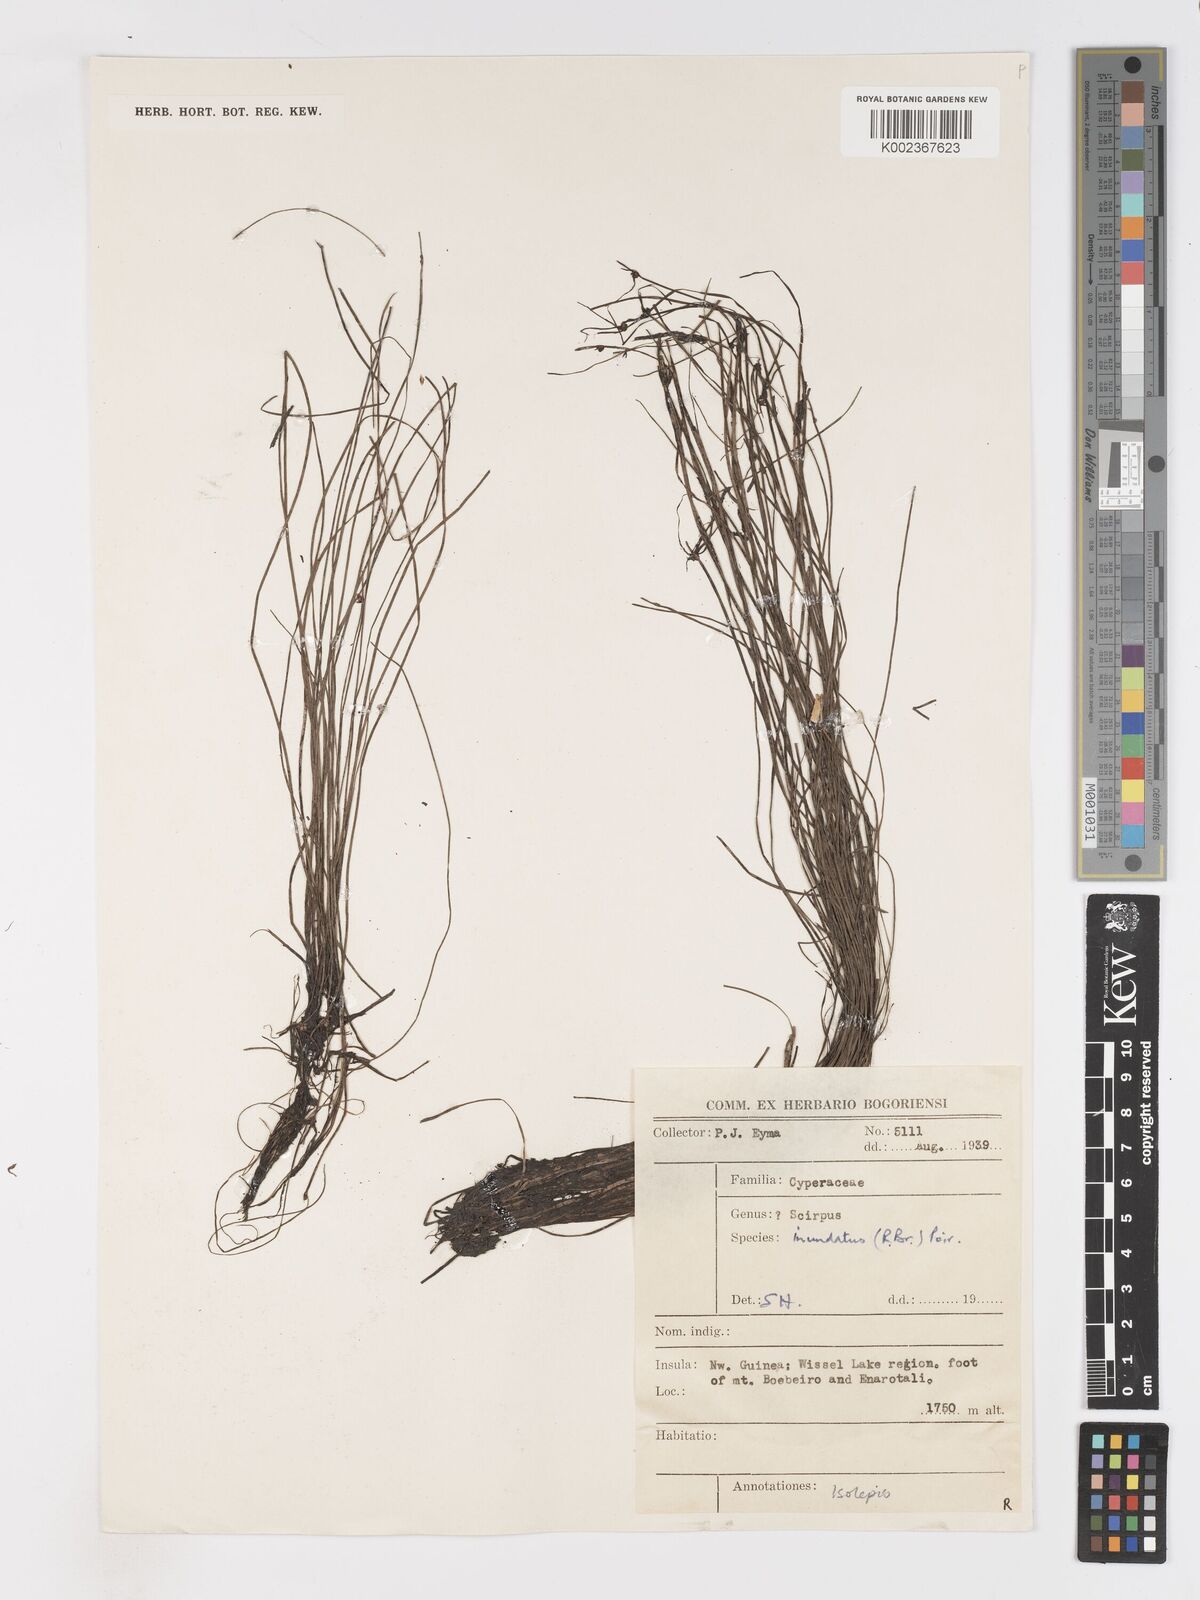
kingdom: Plantae
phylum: Tracheophyta
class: Liliopsida
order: Poales
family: Cyperaceae
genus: Isolepis
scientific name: Isolepis inundata
